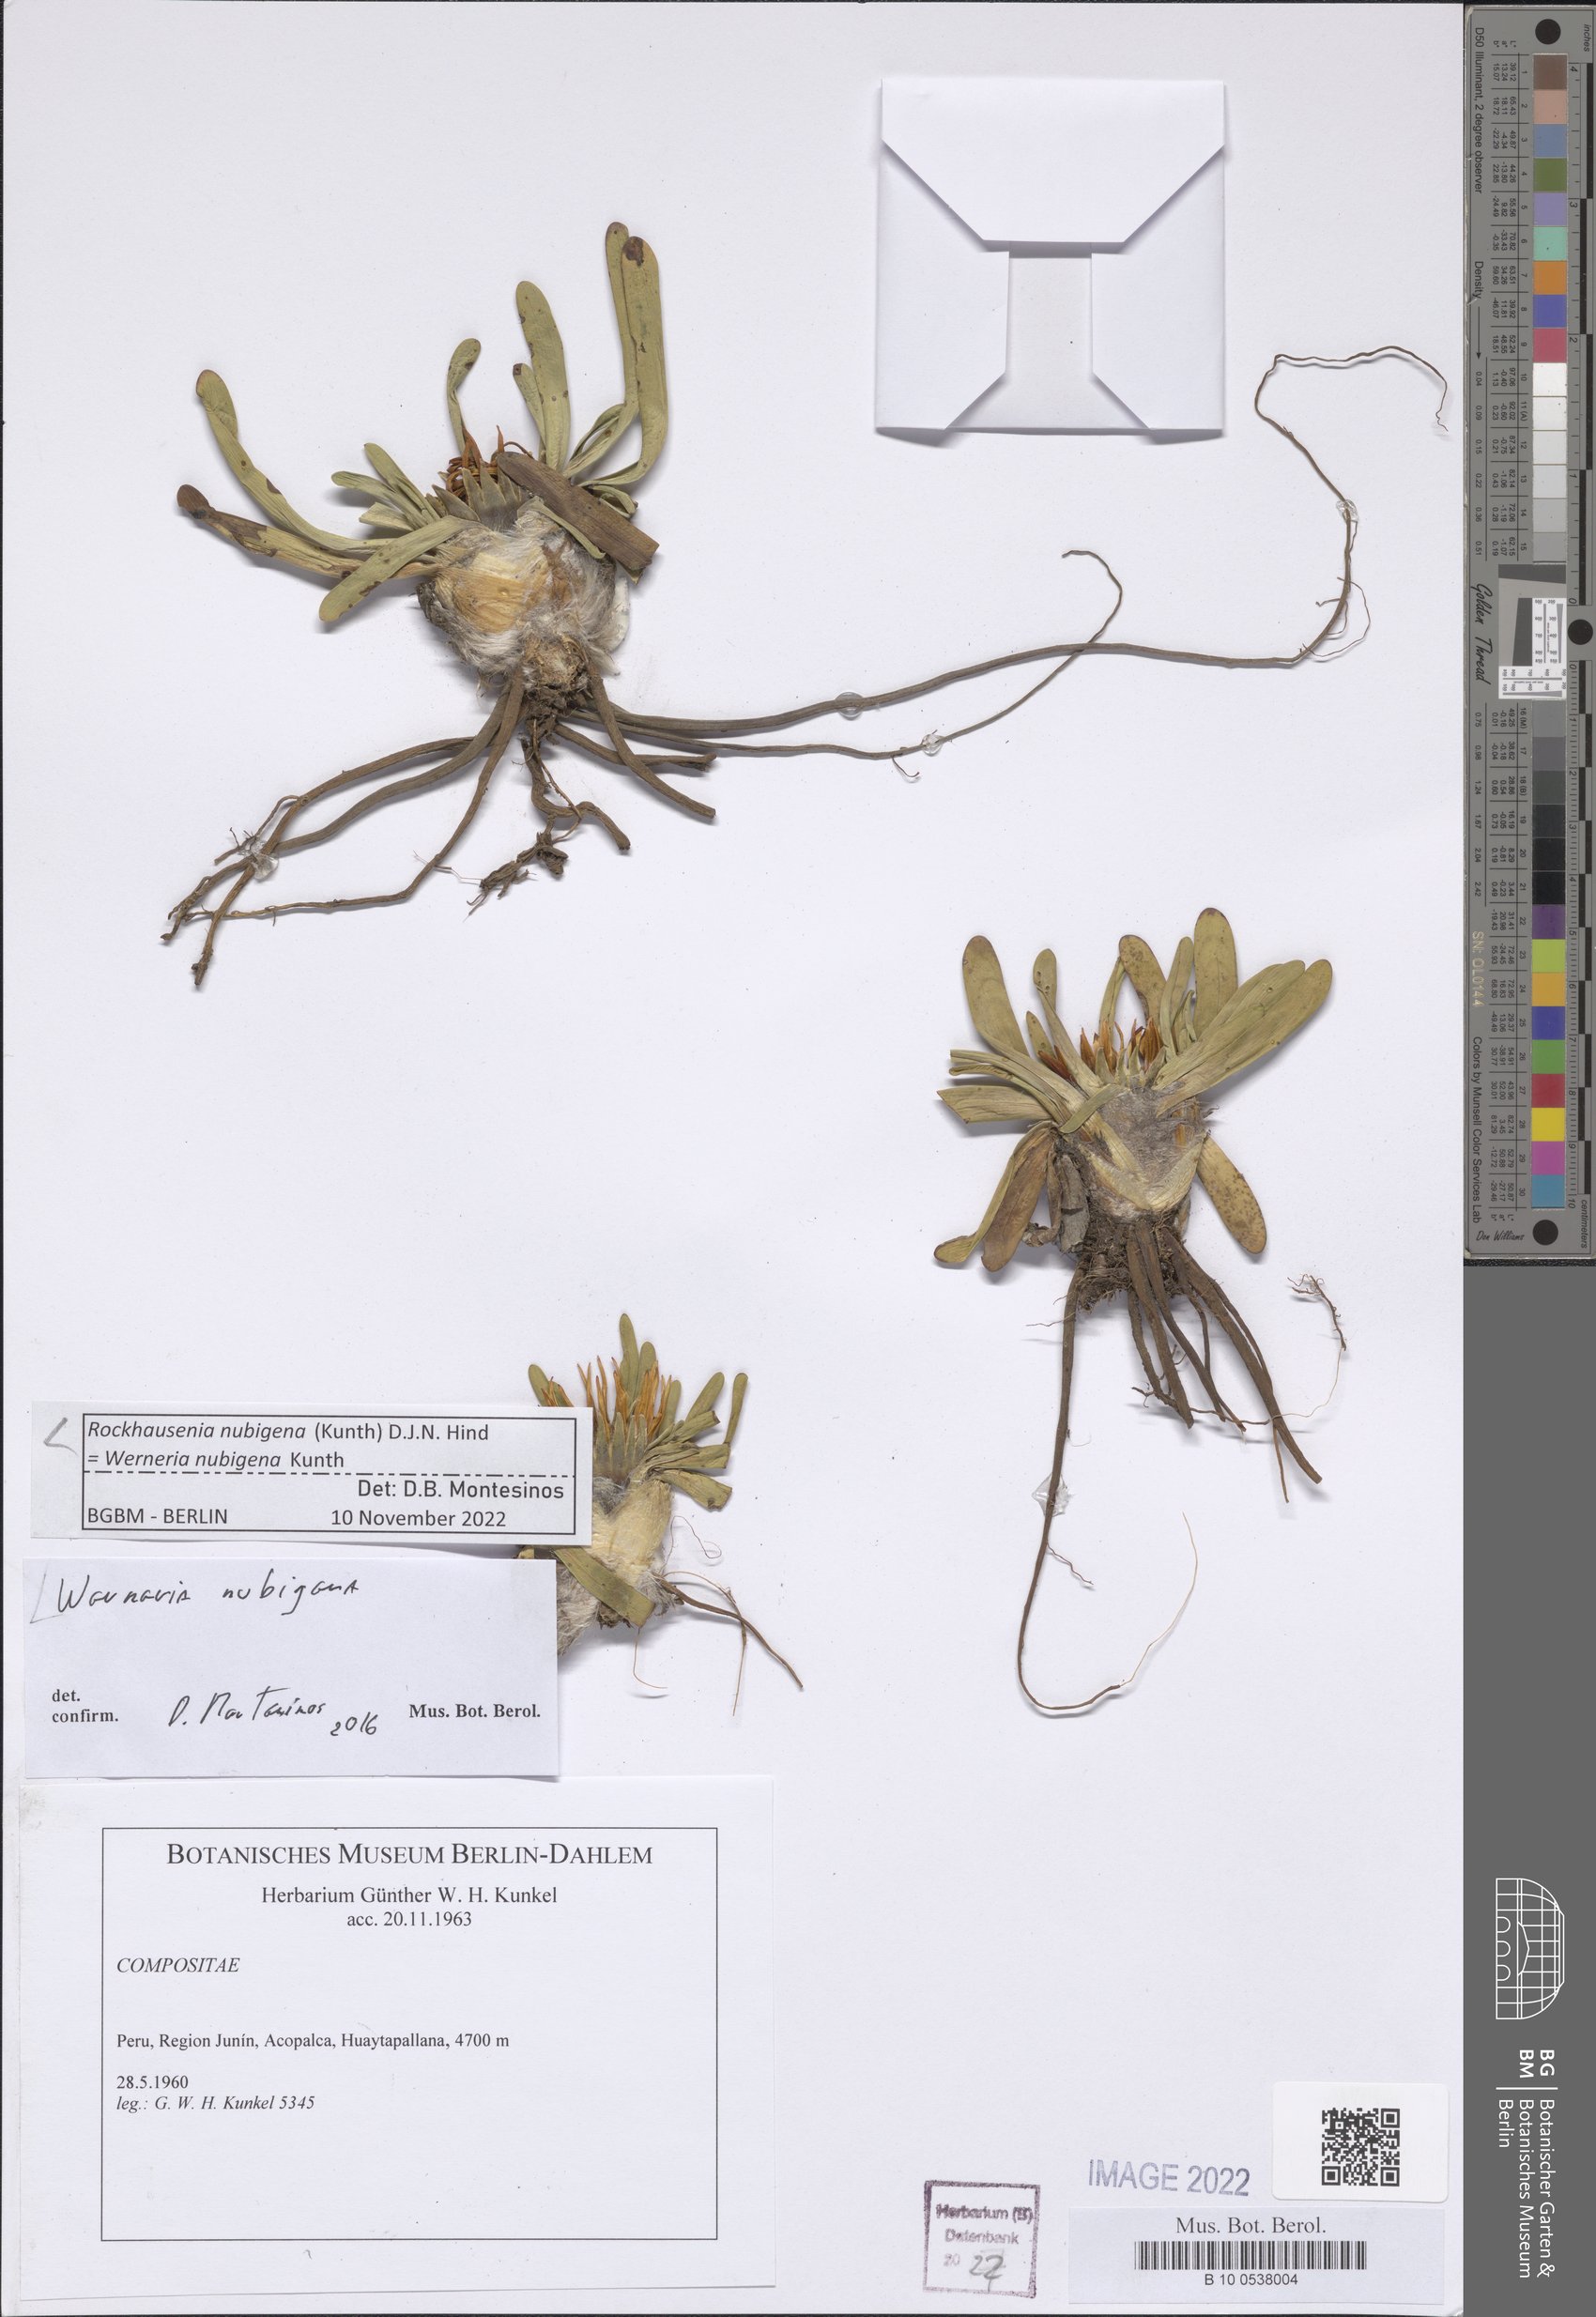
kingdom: Plantae
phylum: Tracheophyta
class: Magnoliopsida
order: Asterales
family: Asteraceae
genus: Rockhausenia
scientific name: Rockhausenia nubigena
